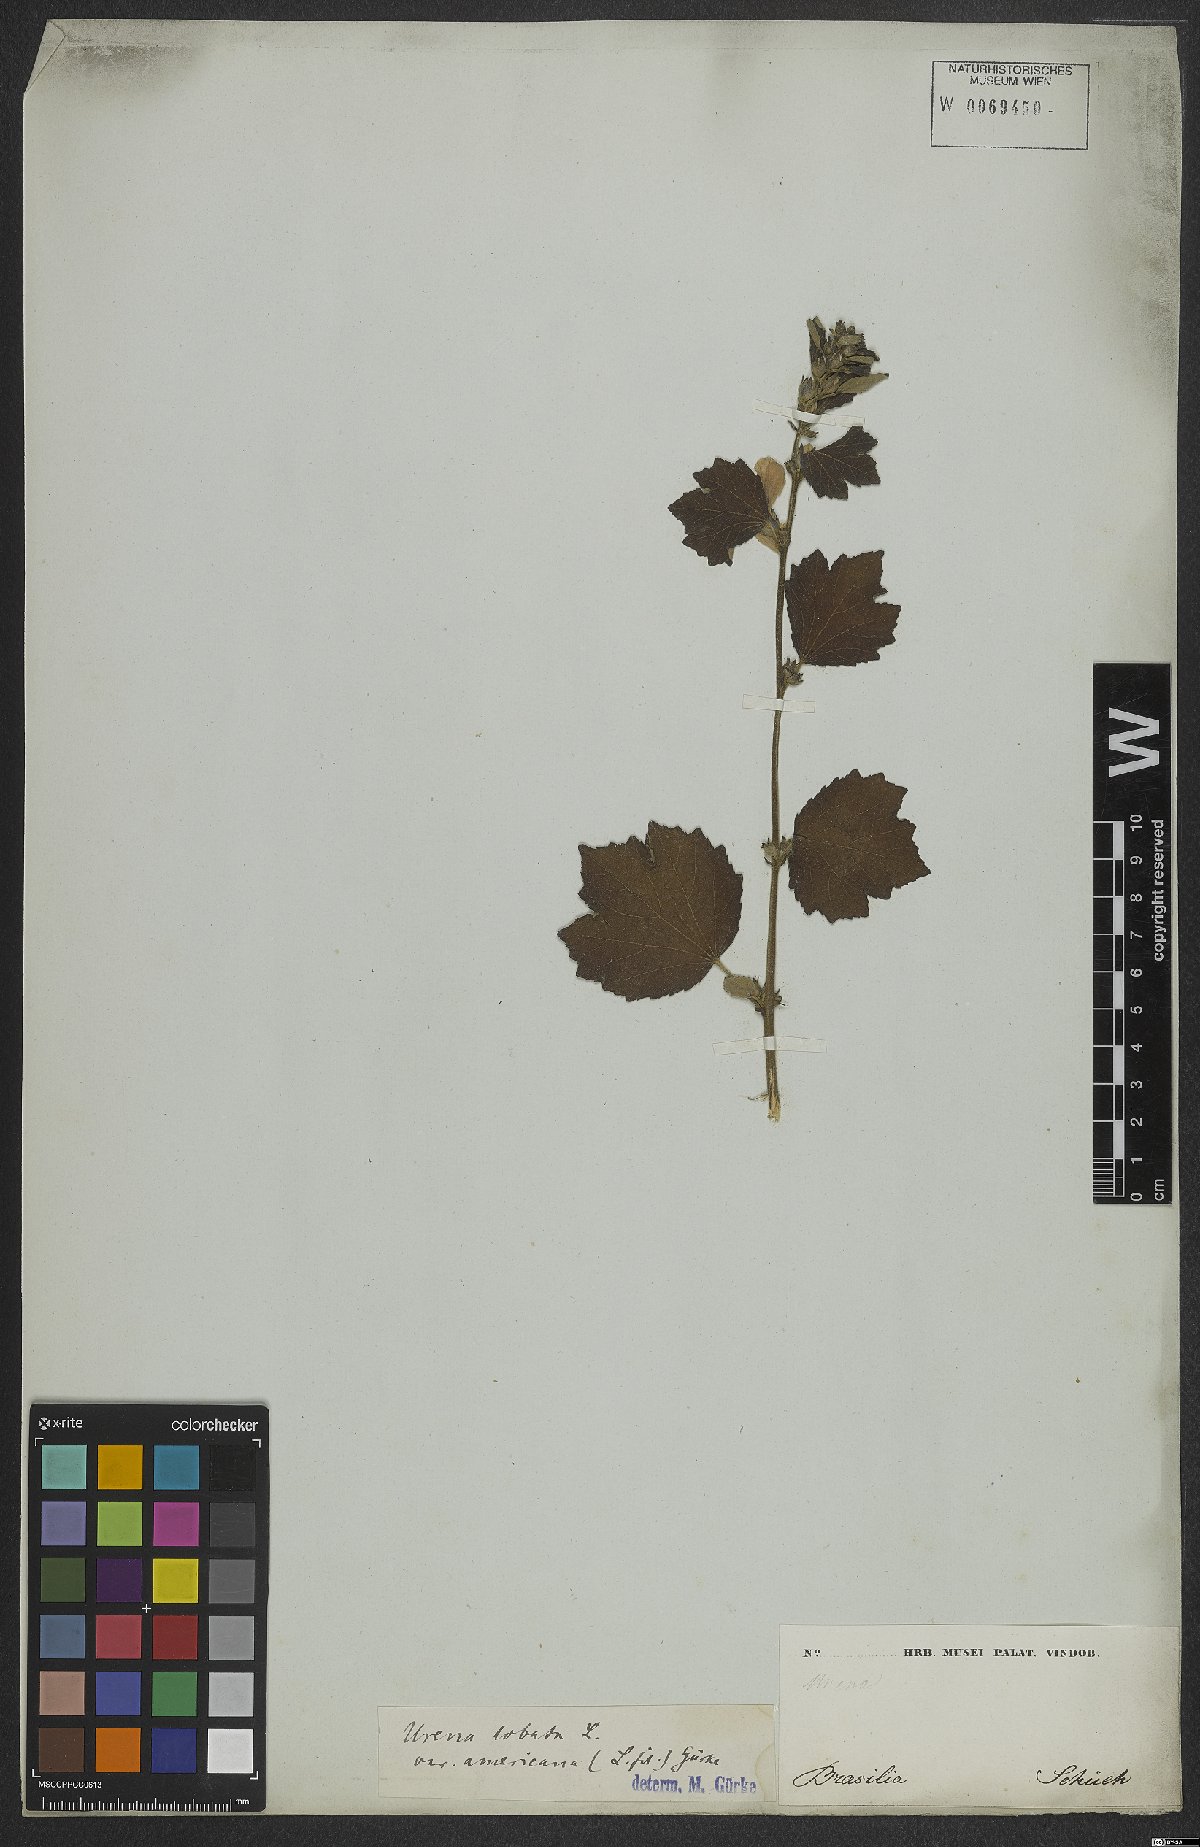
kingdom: Plantae
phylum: Tracheophyta
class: Magnoliopsida
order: Malvales
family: Malvaceae
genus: Urena
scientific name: Urena lobata
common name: Caesarweed
